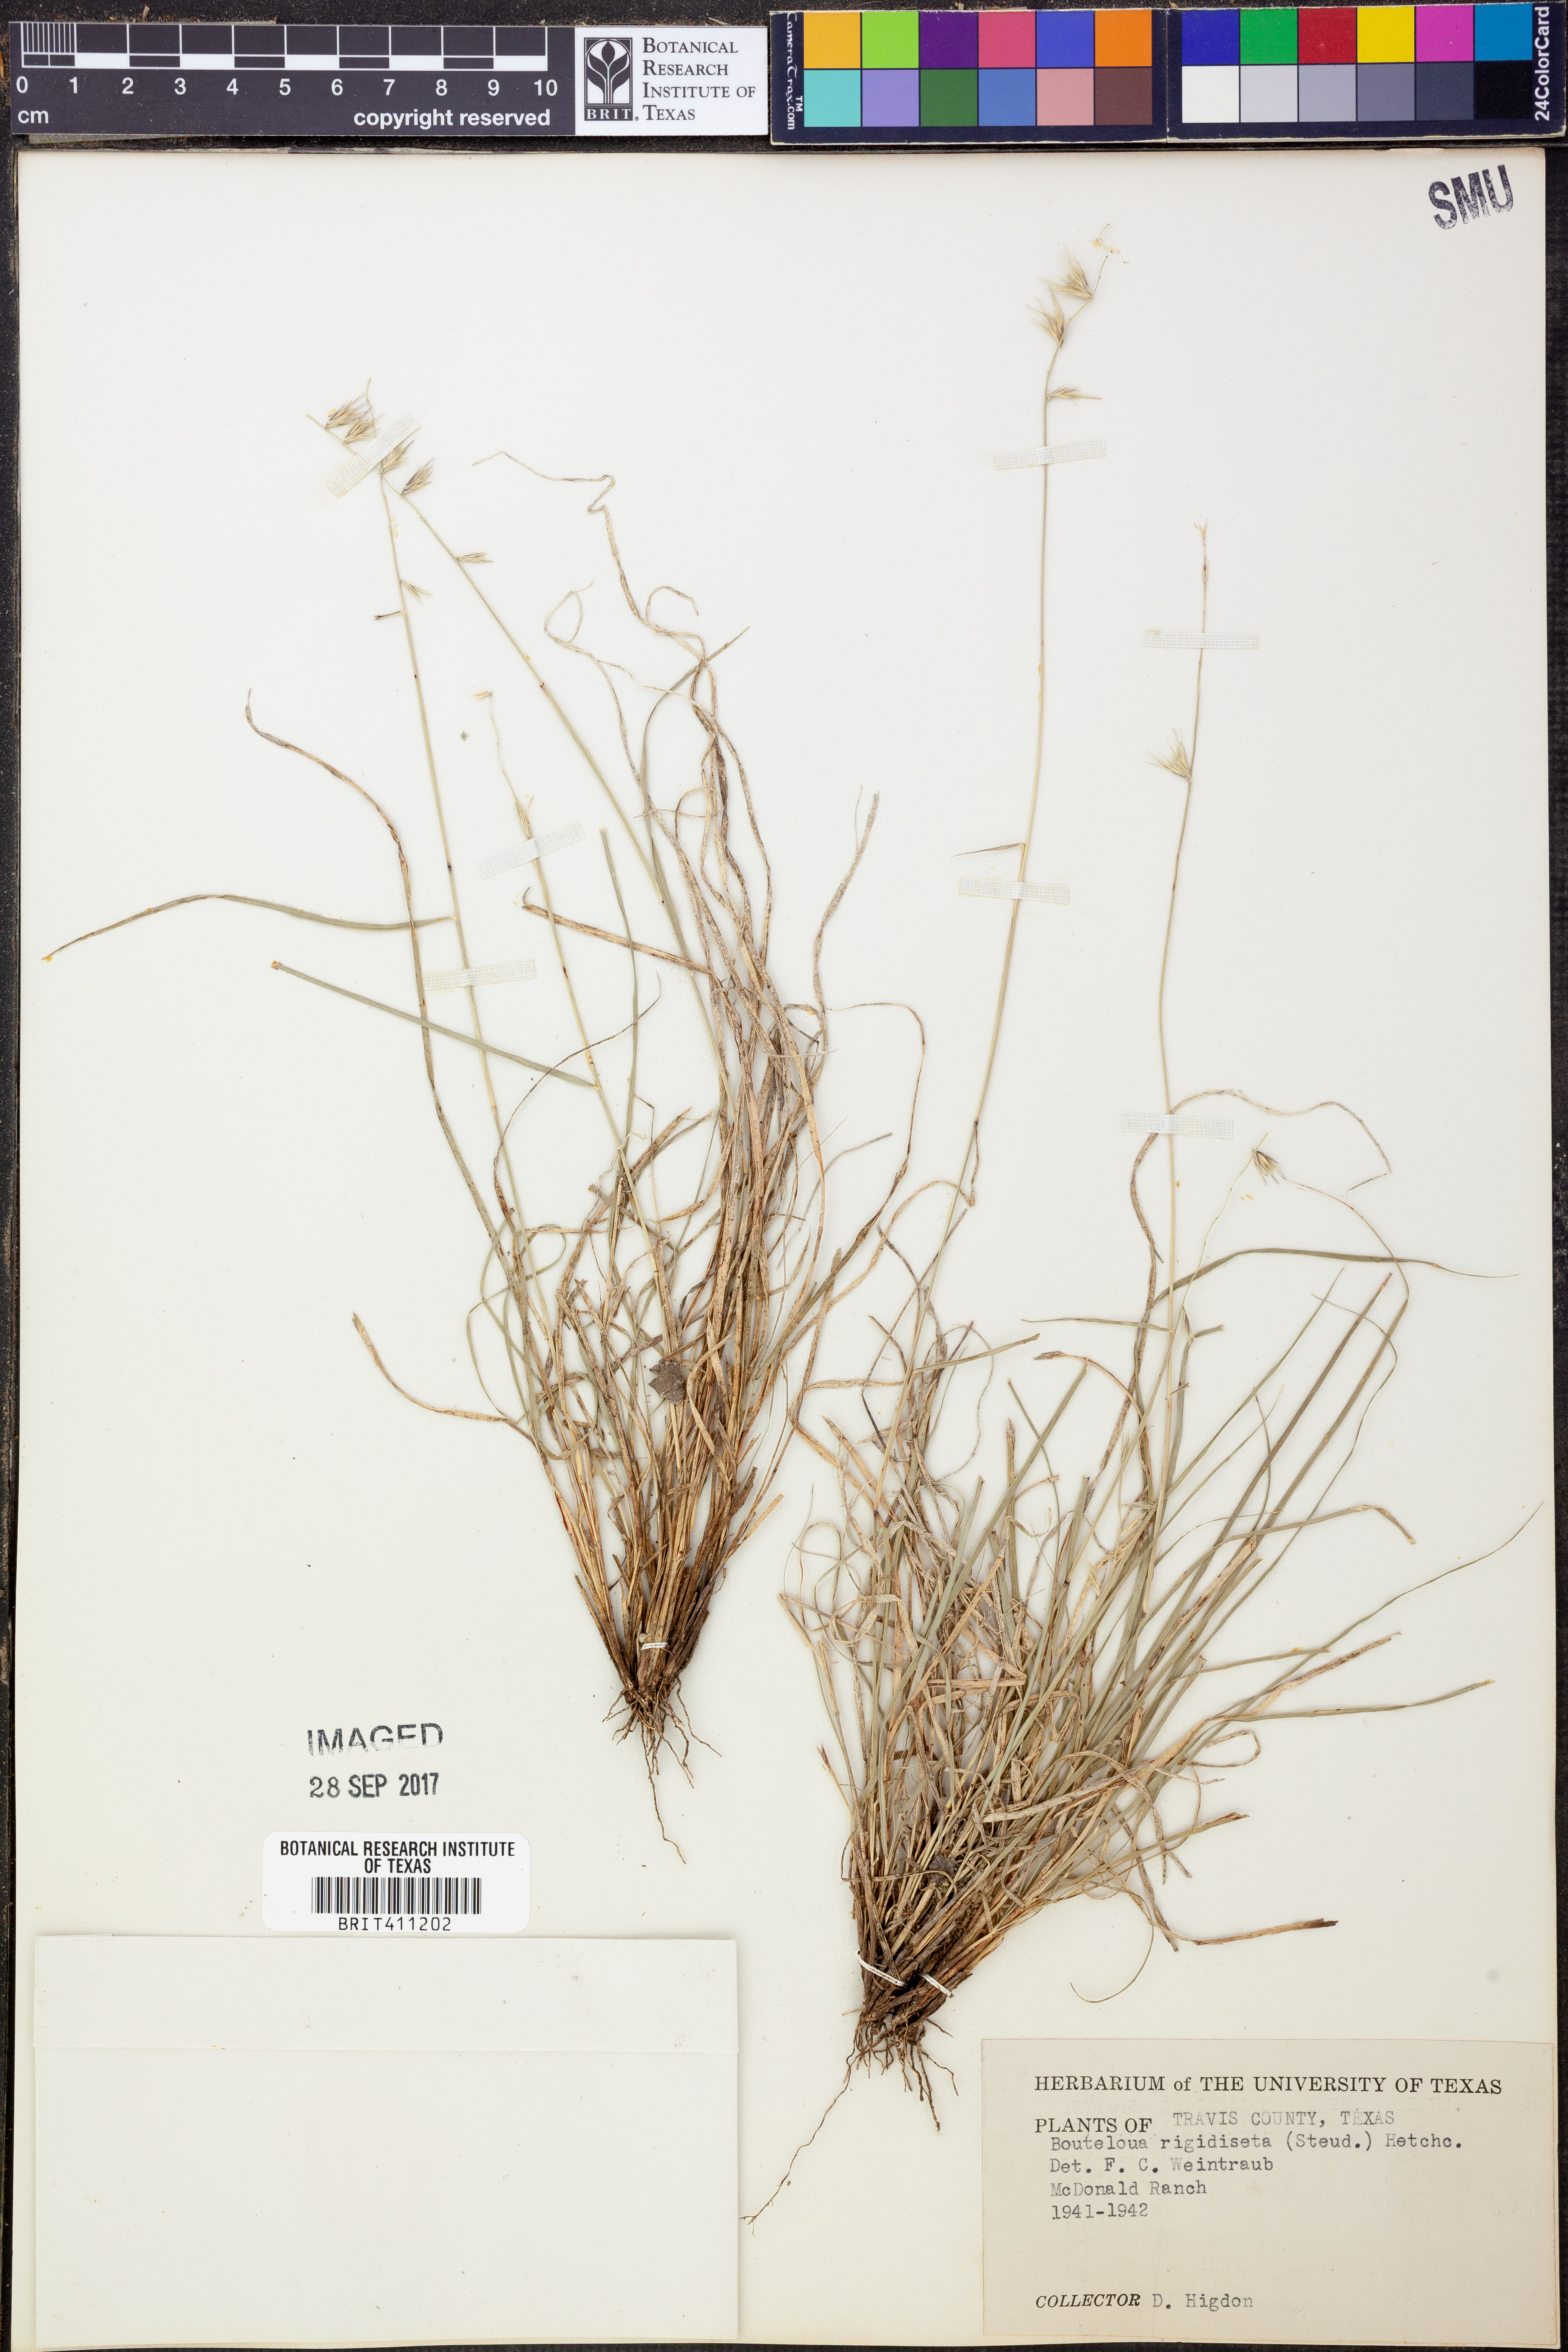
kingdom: Plantae
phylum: Tracheophyta
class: Liliopsida
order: Poales
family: Poaceae
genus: Bouteloua
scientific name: Bouteloua rigidiseta
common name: Texas grama
